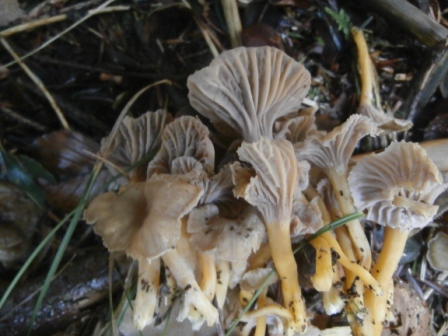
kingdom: Fungi
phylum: Basidiomycota
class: Agaricomycetes
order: Cantharellales
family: Hydnaceae
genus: Craterellus
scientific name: Craterellus tubaeformis
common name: tragt-kantarel
